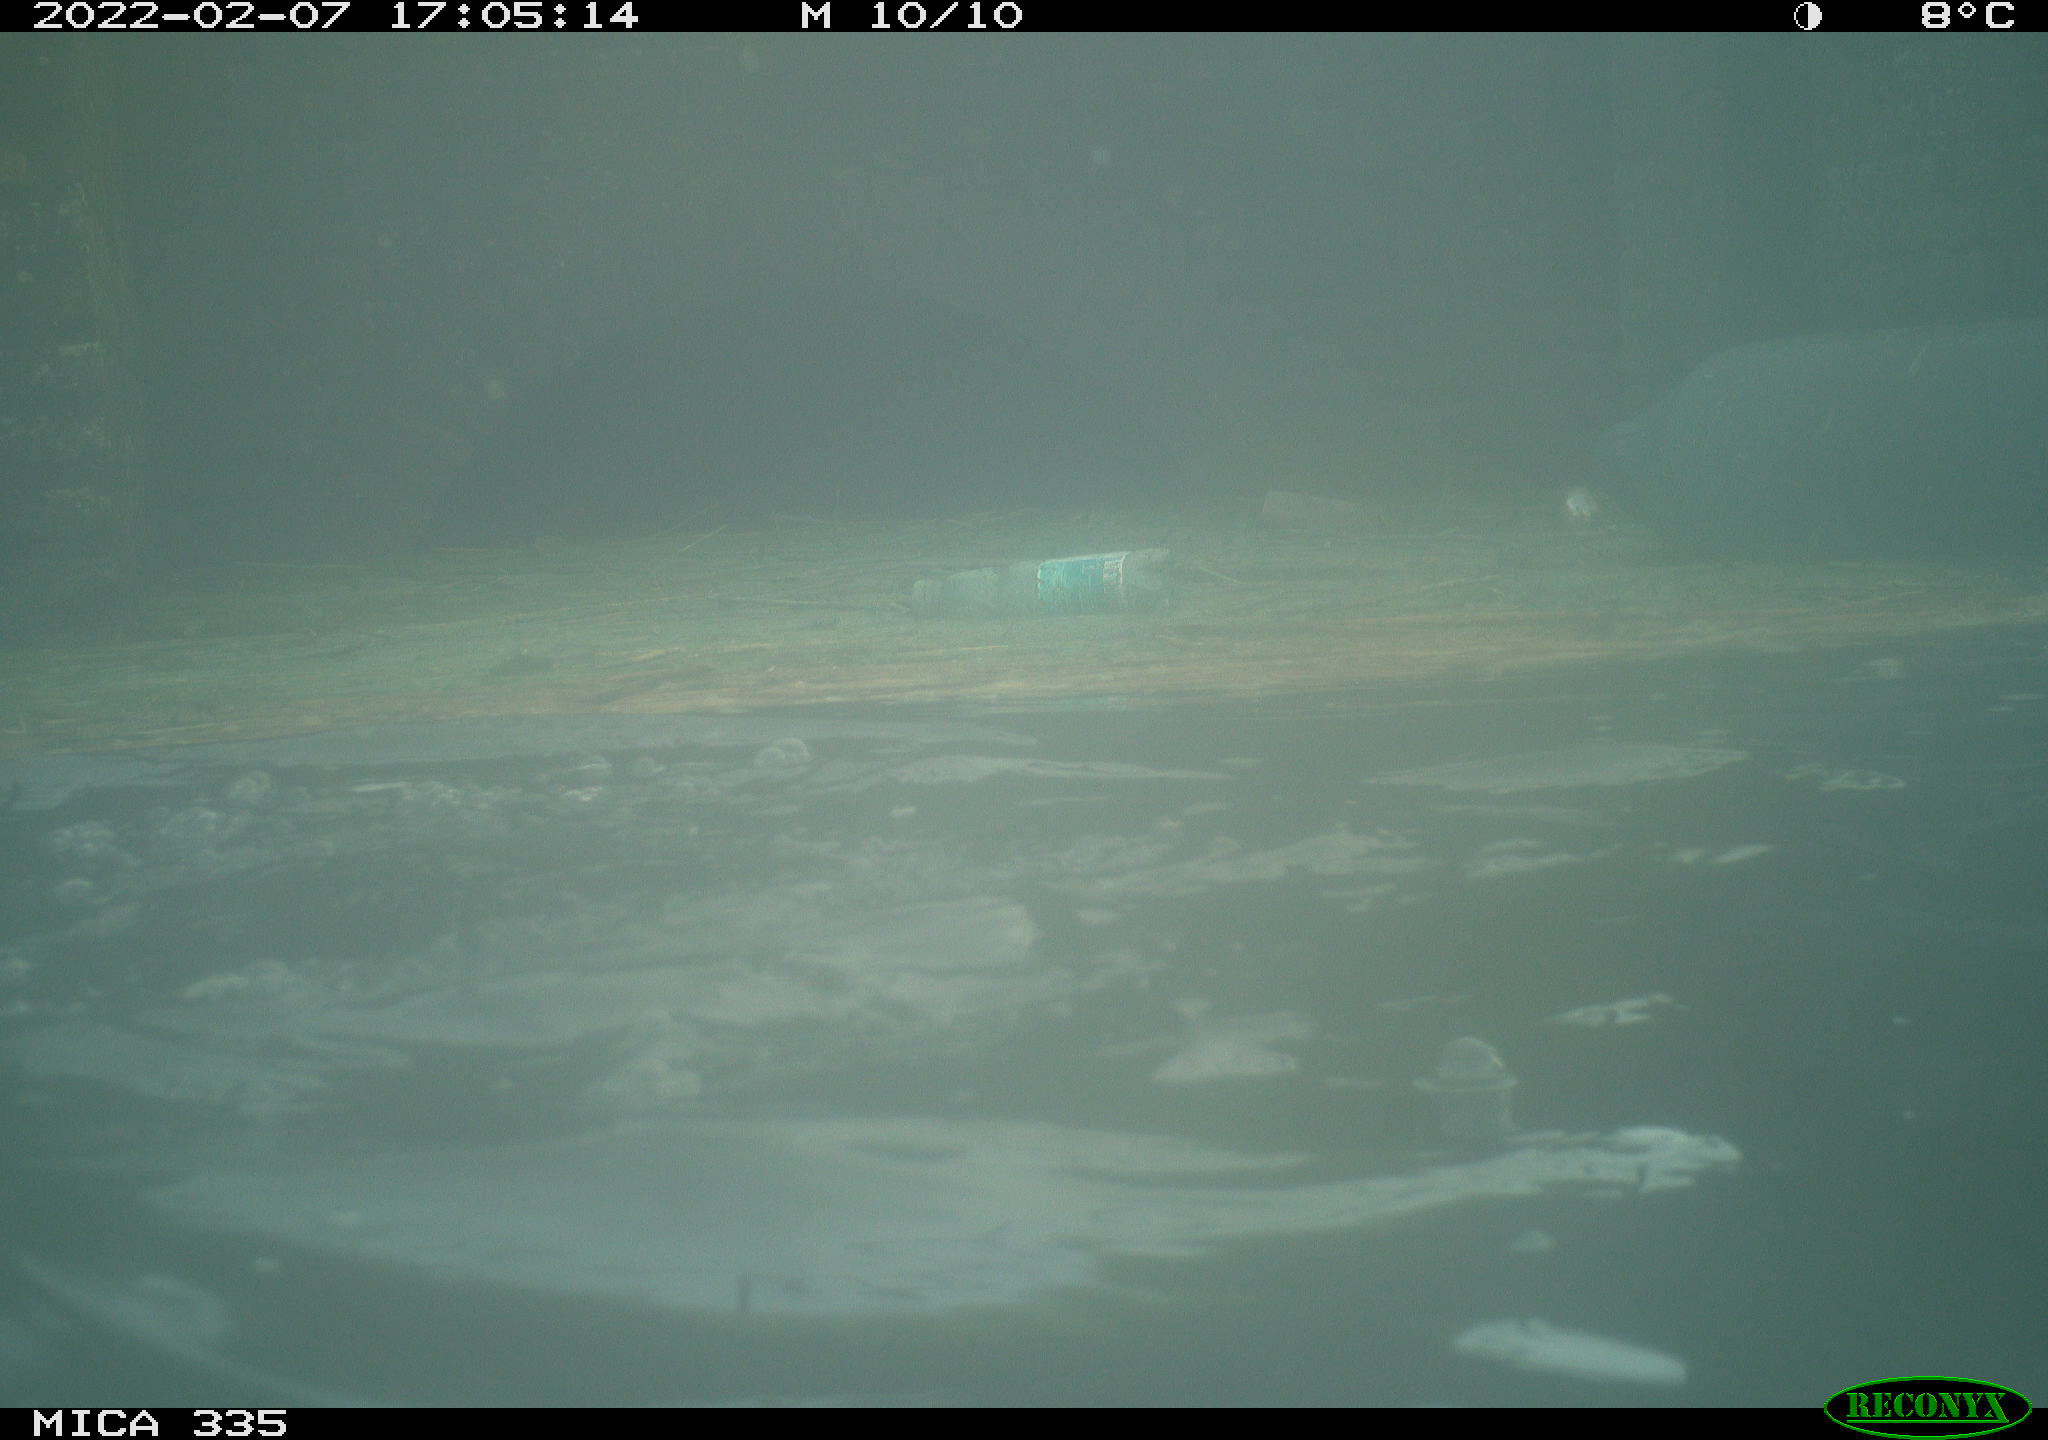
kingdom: Animalia
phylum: Chordata
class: Aves
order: Suliformes
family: Phalacrocoracidae
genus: Phalacrocorax
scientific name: Phalacrocorax carbo
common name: Great cormorant
